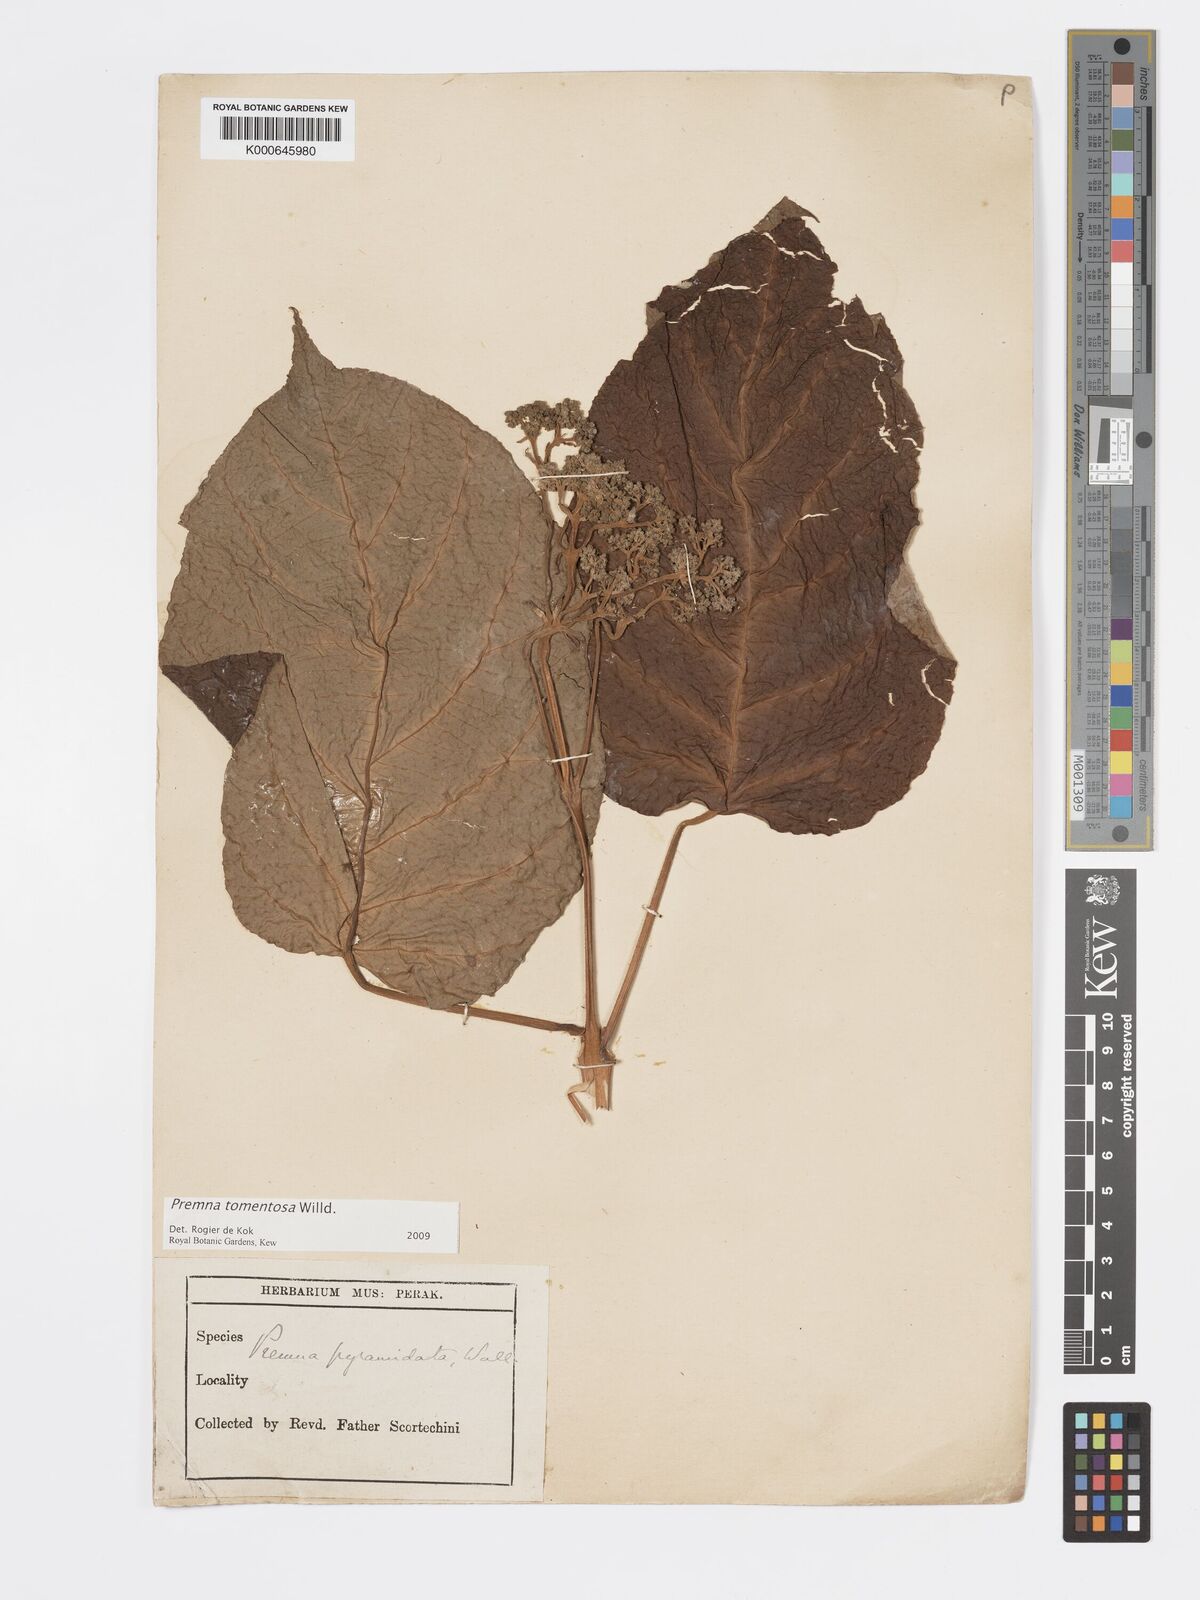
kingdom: Plantae
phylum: Tracheophyta
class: Magnoliopsida
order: Lamiales
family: Lamiaceae
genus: Premna
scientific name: Premna tomentosa
